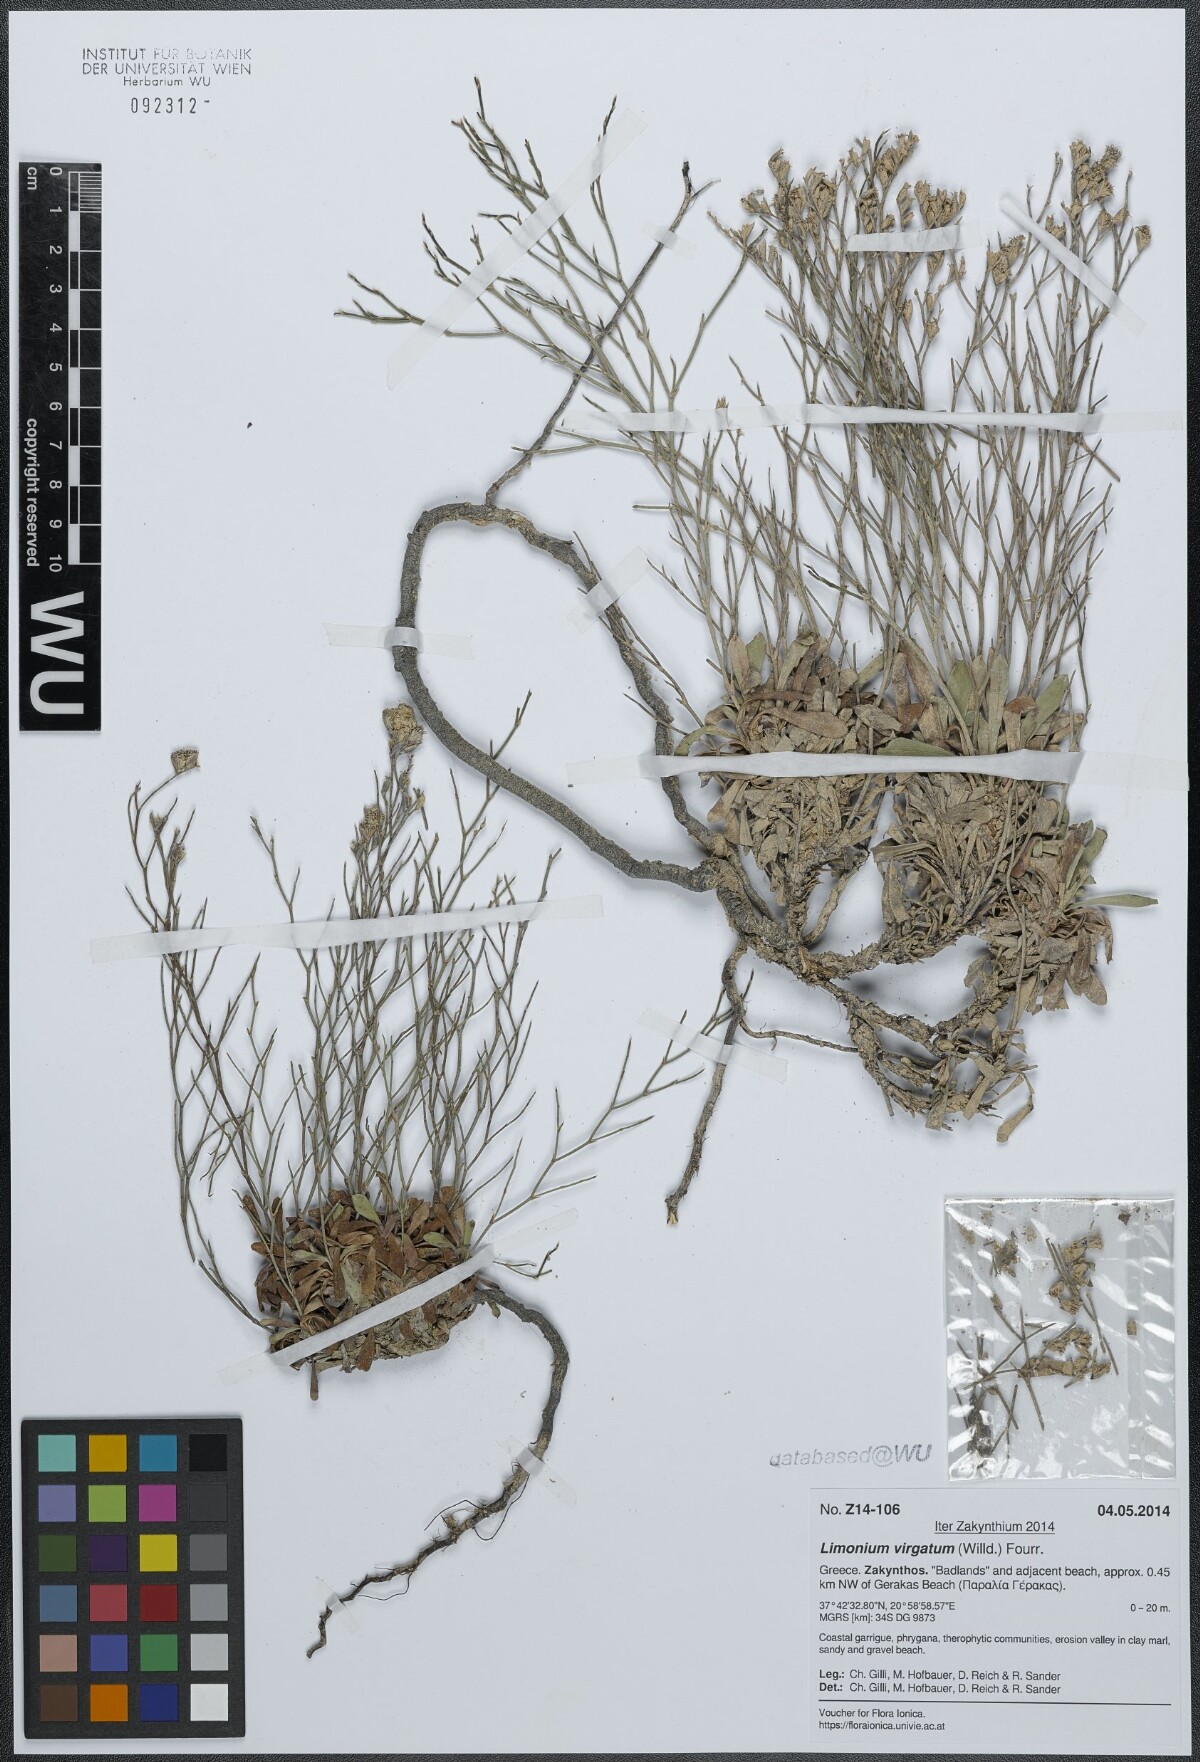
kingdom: Plantae
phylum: Tracheophyta
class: Magnoliopsida
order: Caryophyllales
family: Plumbaginaceae
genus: Limonium
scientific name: Limonium virgatum
